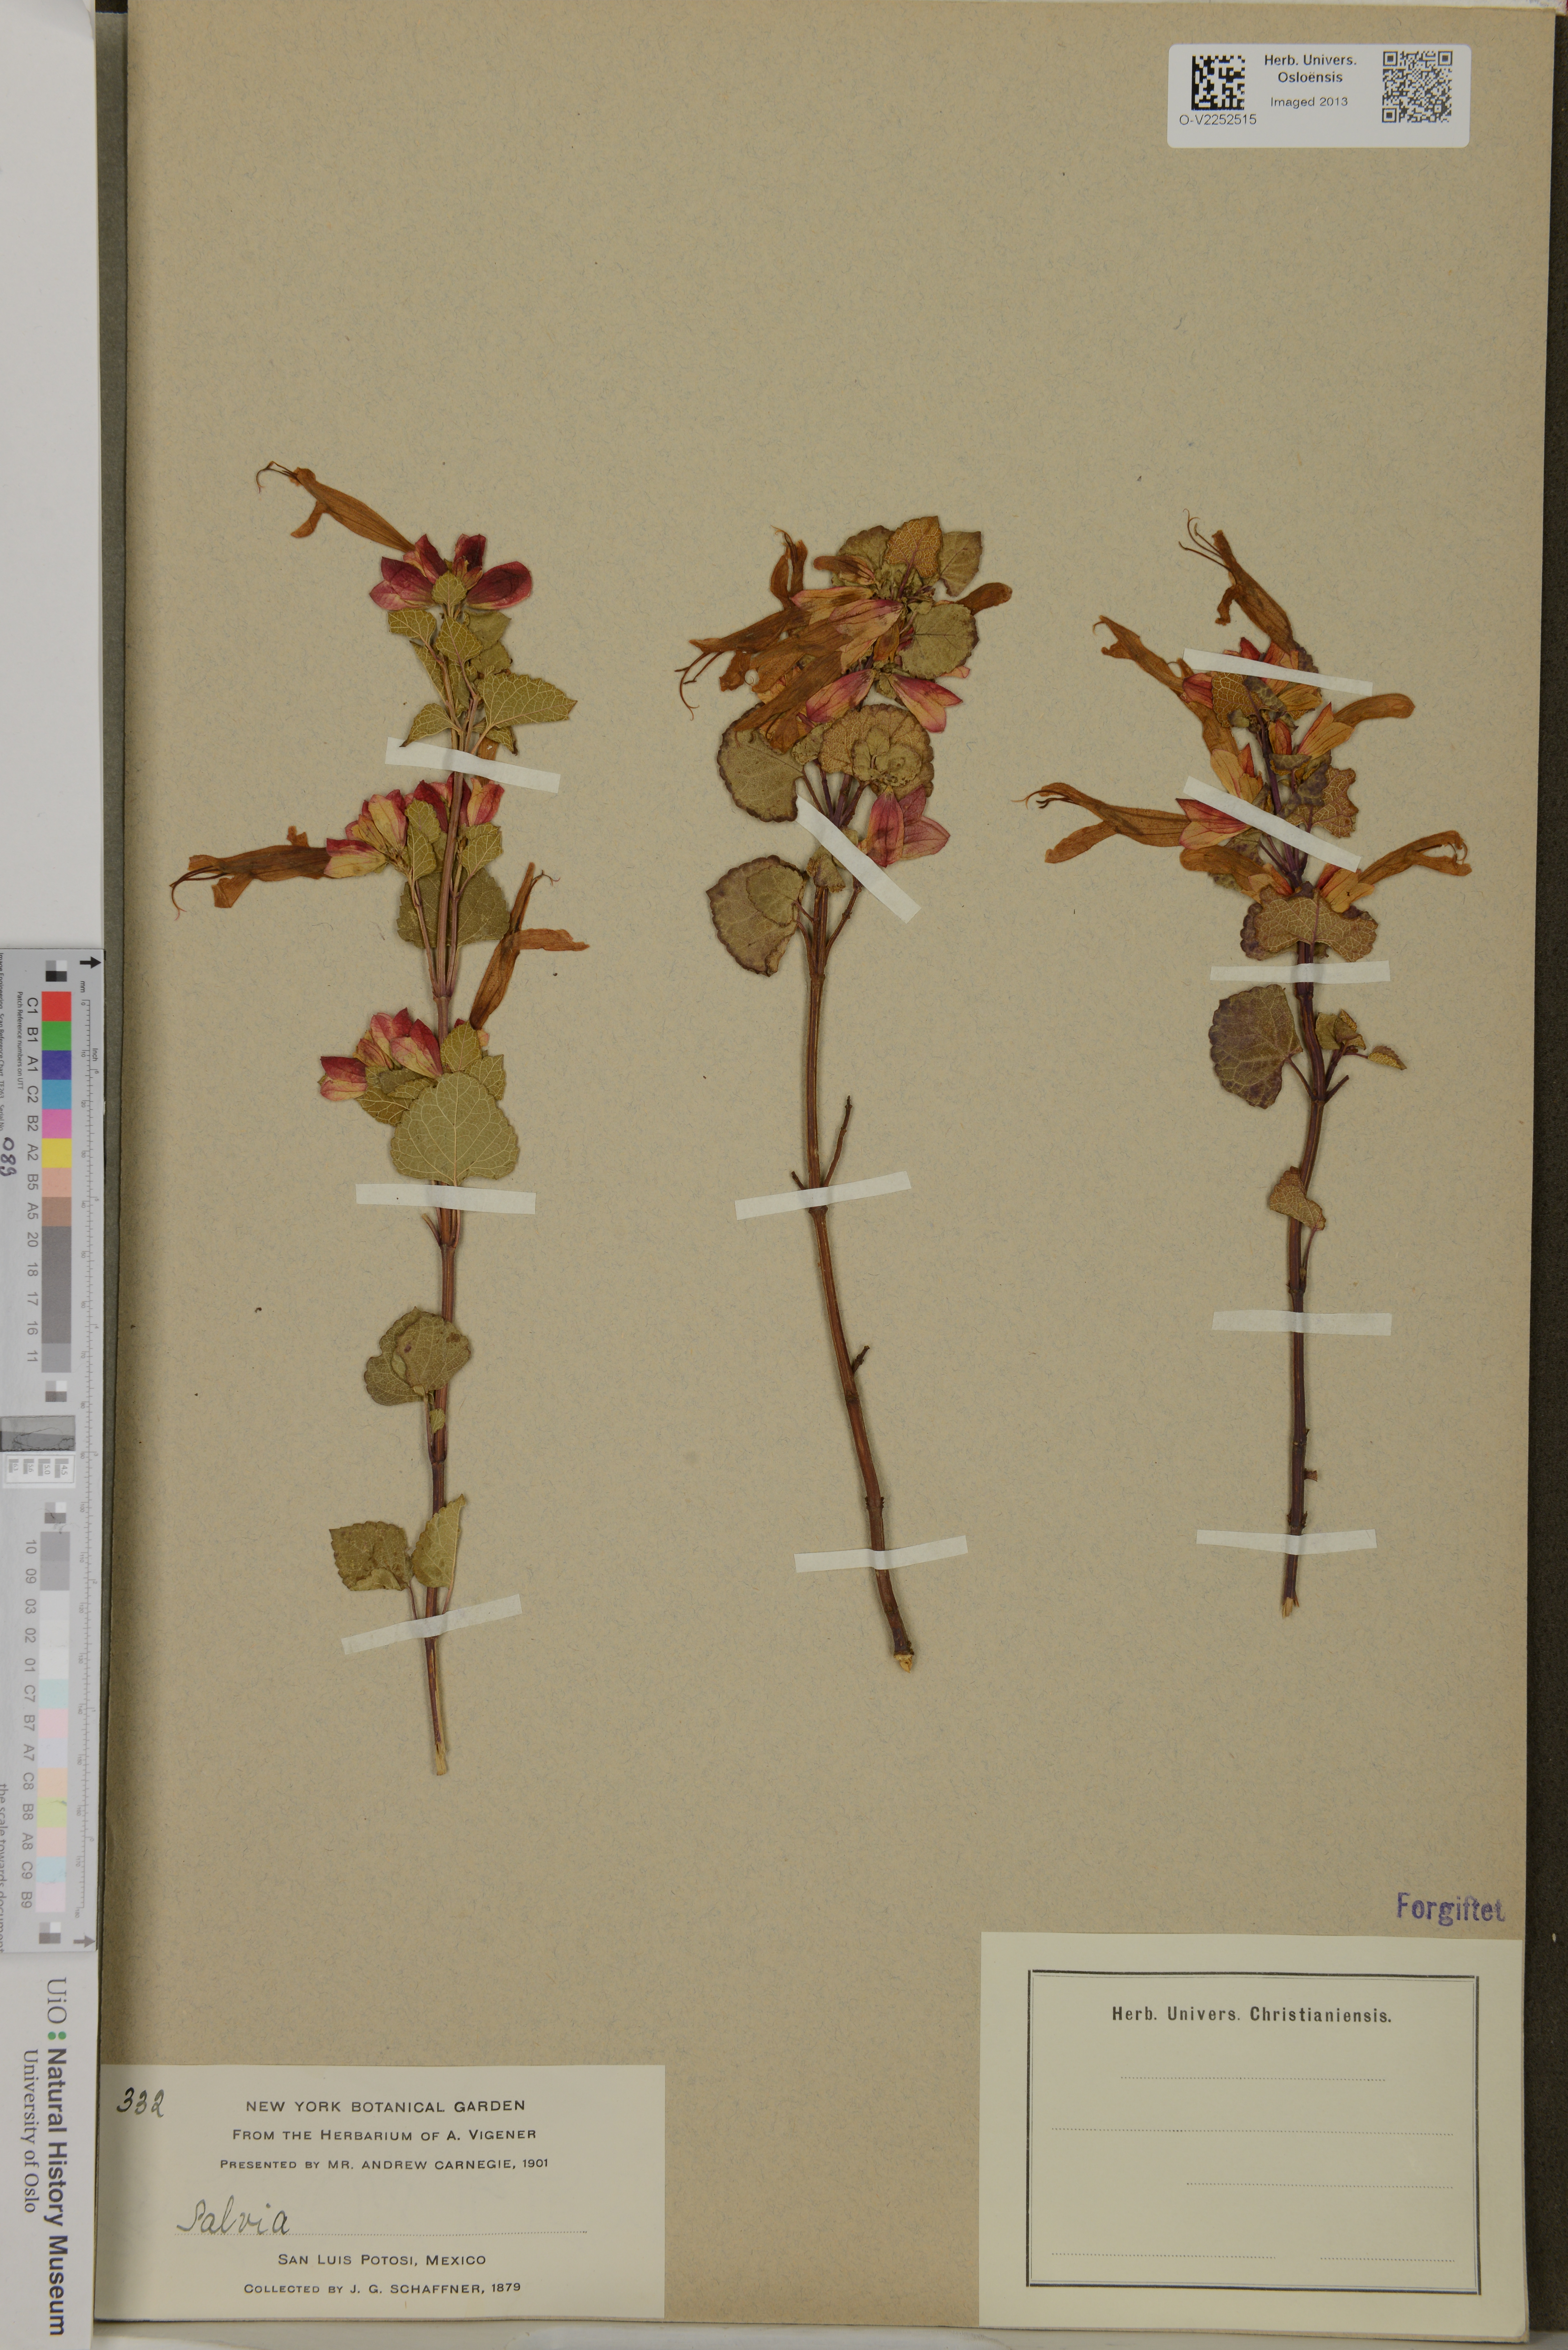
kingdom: Plantae
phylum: Tracheophyta
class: Magnoliopsida
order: Lamiales
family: Lamiaceae
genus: Salvia
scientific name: Salvia
